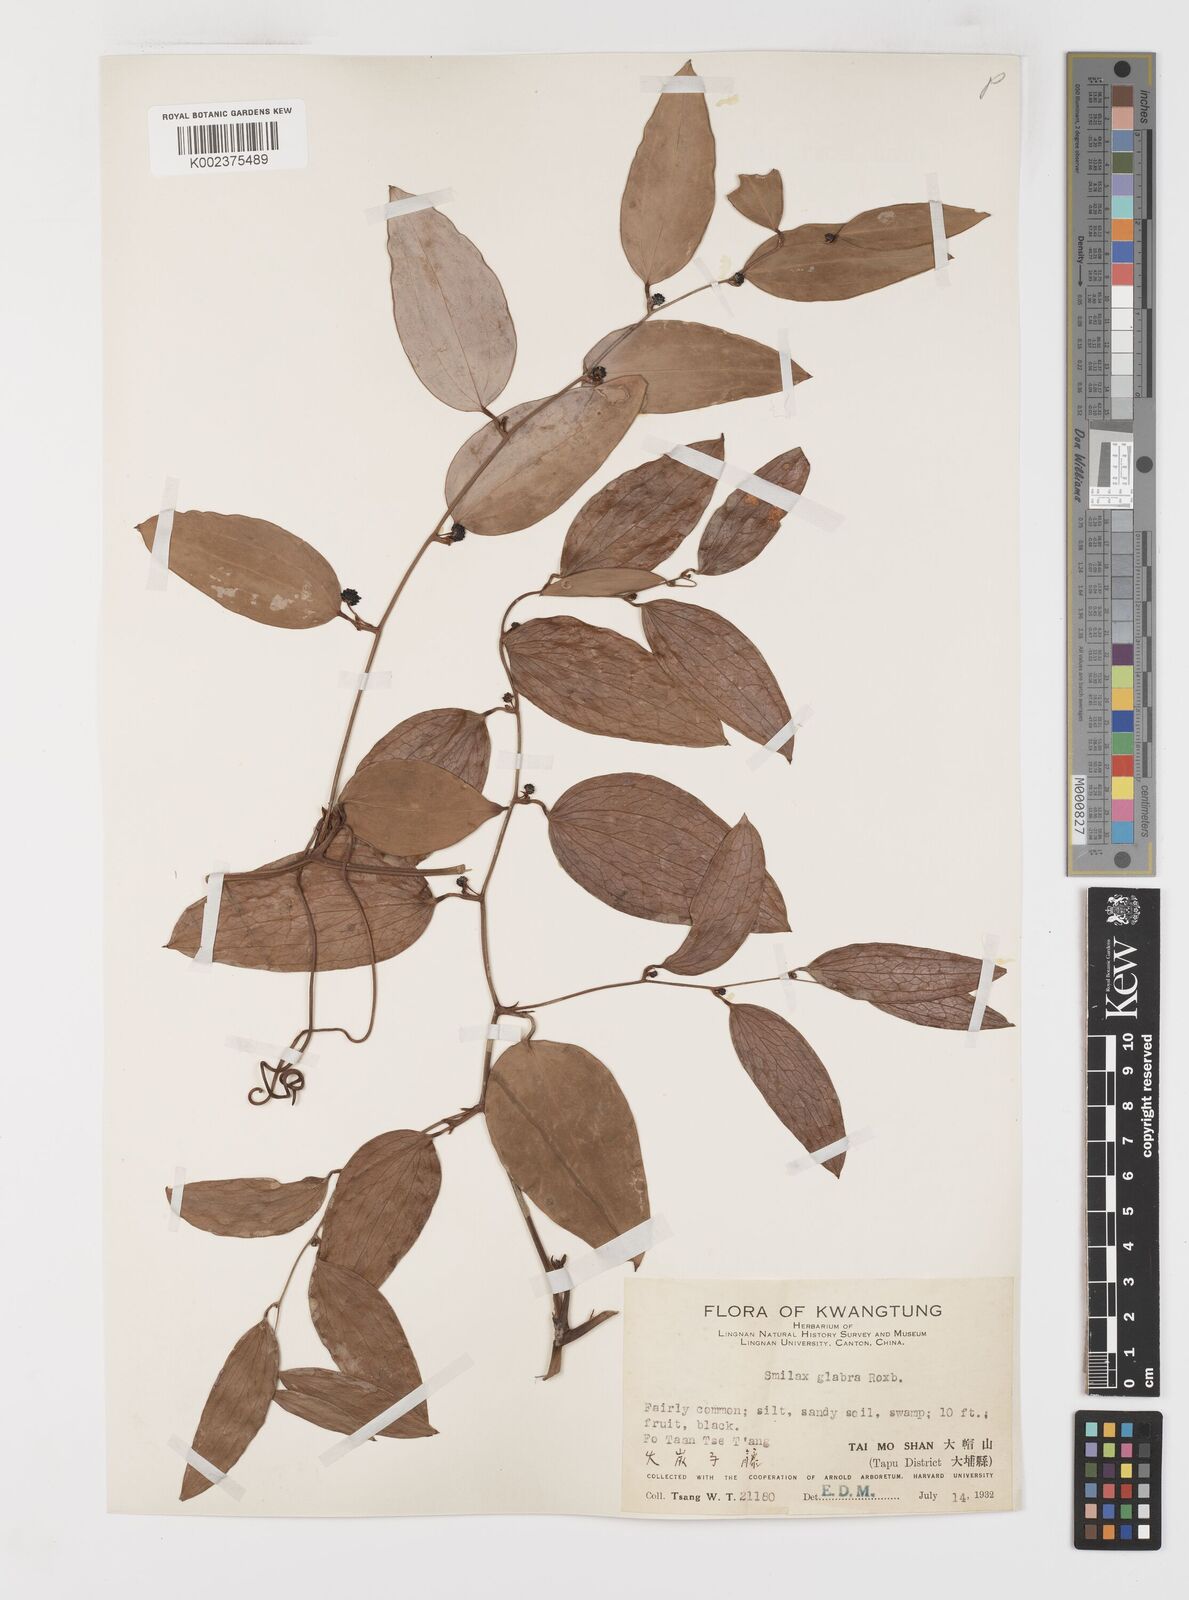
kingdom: Plantae
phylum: Tracheophyta
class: Liliopsida
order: Liliales
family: Smilacaceae
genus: Smilax
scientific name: Smilax glabra
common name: Chinese smilax
